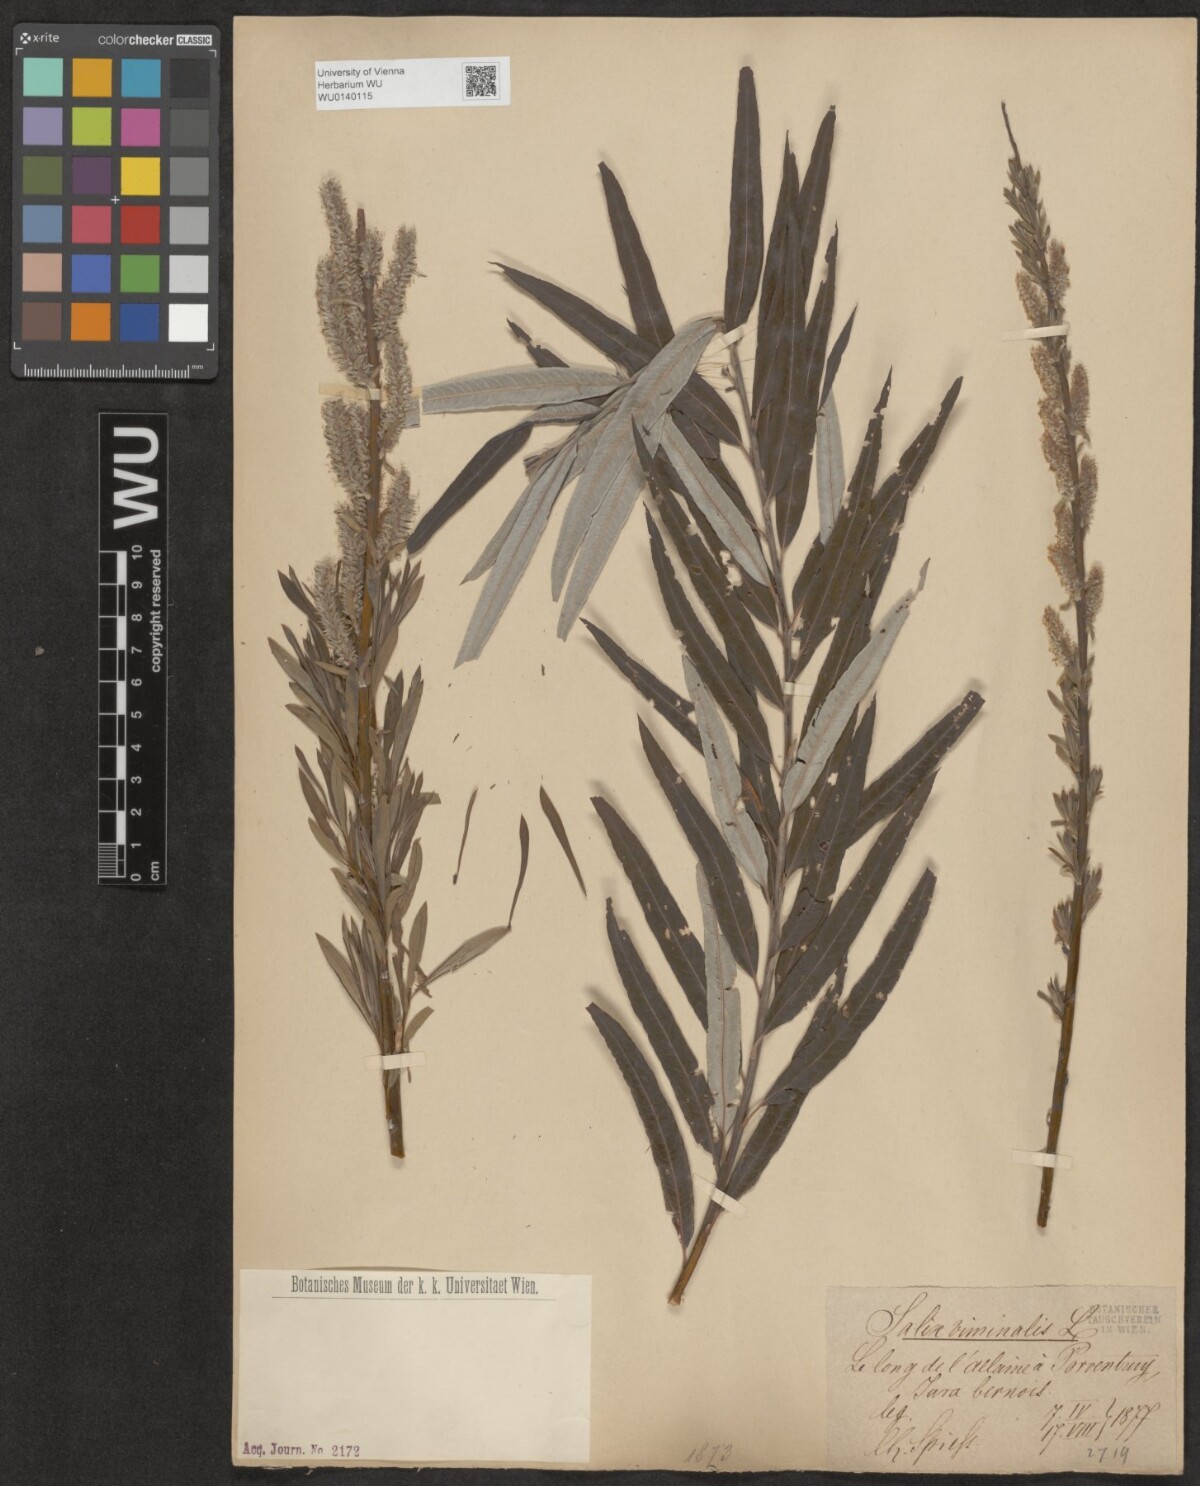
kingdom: Plantae
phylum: Tracheophyta
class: Magnoliopsida
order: Malpighiales
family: Salicaceae
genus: Salix
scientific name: Salix viminalis
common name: Osier
